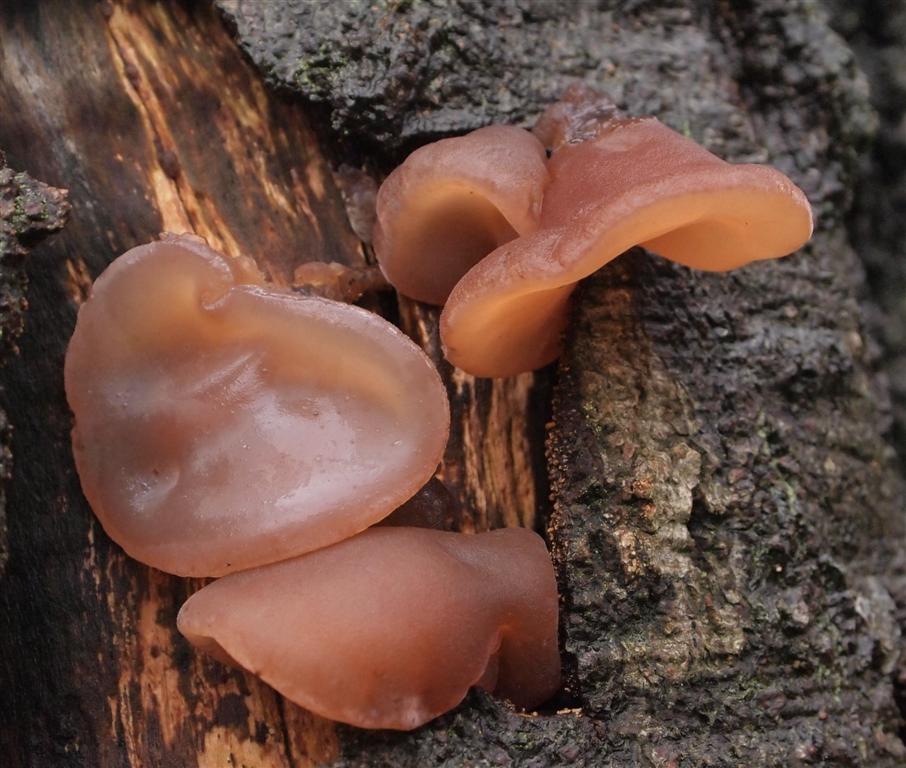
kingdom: Fungi
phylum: Basidiomycota
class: Agaricomycetes
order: Auriculariales
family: Auriculariaceae
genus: Auricularia
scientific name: Auricularia auricula-judae
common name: almindelig judasøre
